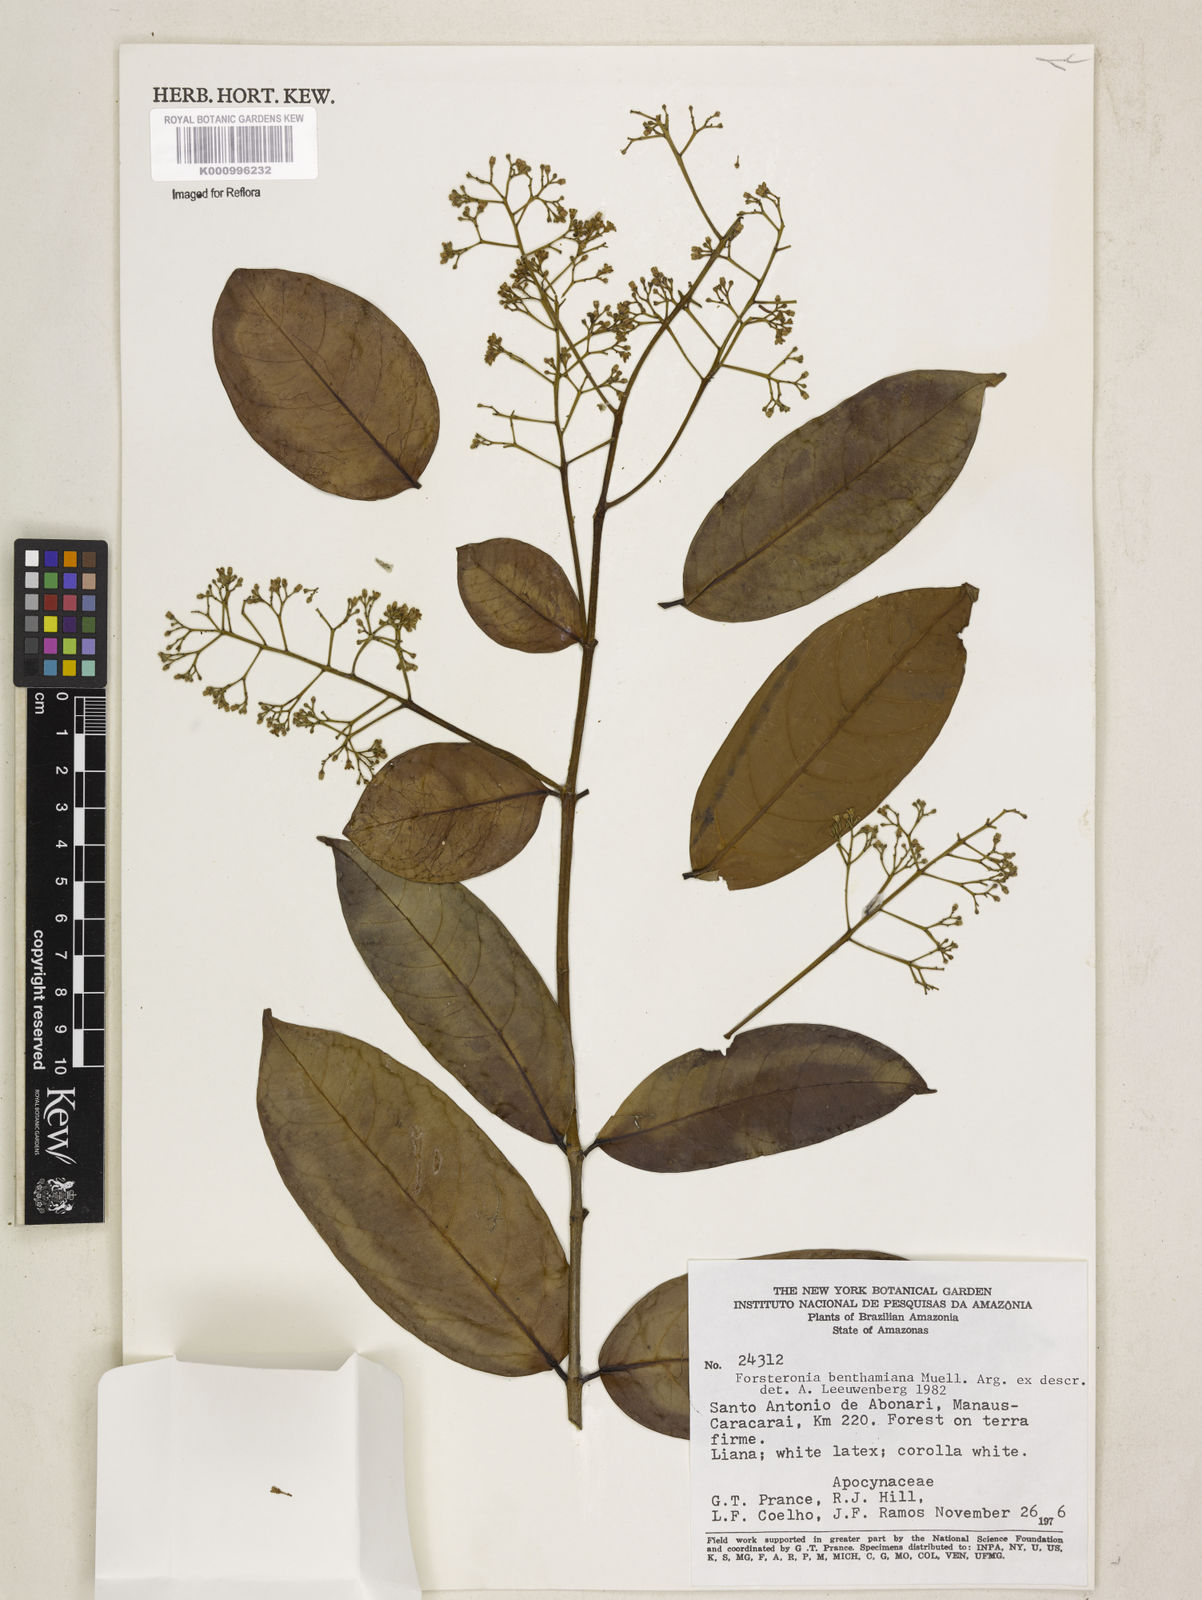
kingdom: Plantae
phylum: Tracheophyta
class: Magnoliopsida
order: Gentianales
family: Apocynaceae
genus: Forsteronia
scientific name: Forsteronia
